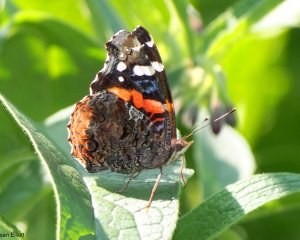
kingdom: Animalia
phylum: Arthropoda
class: Insecta
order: Lepidoptera
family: Nymphalidae
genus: Vanessa
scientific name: Vanessa atalanta
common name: Red Admiral
